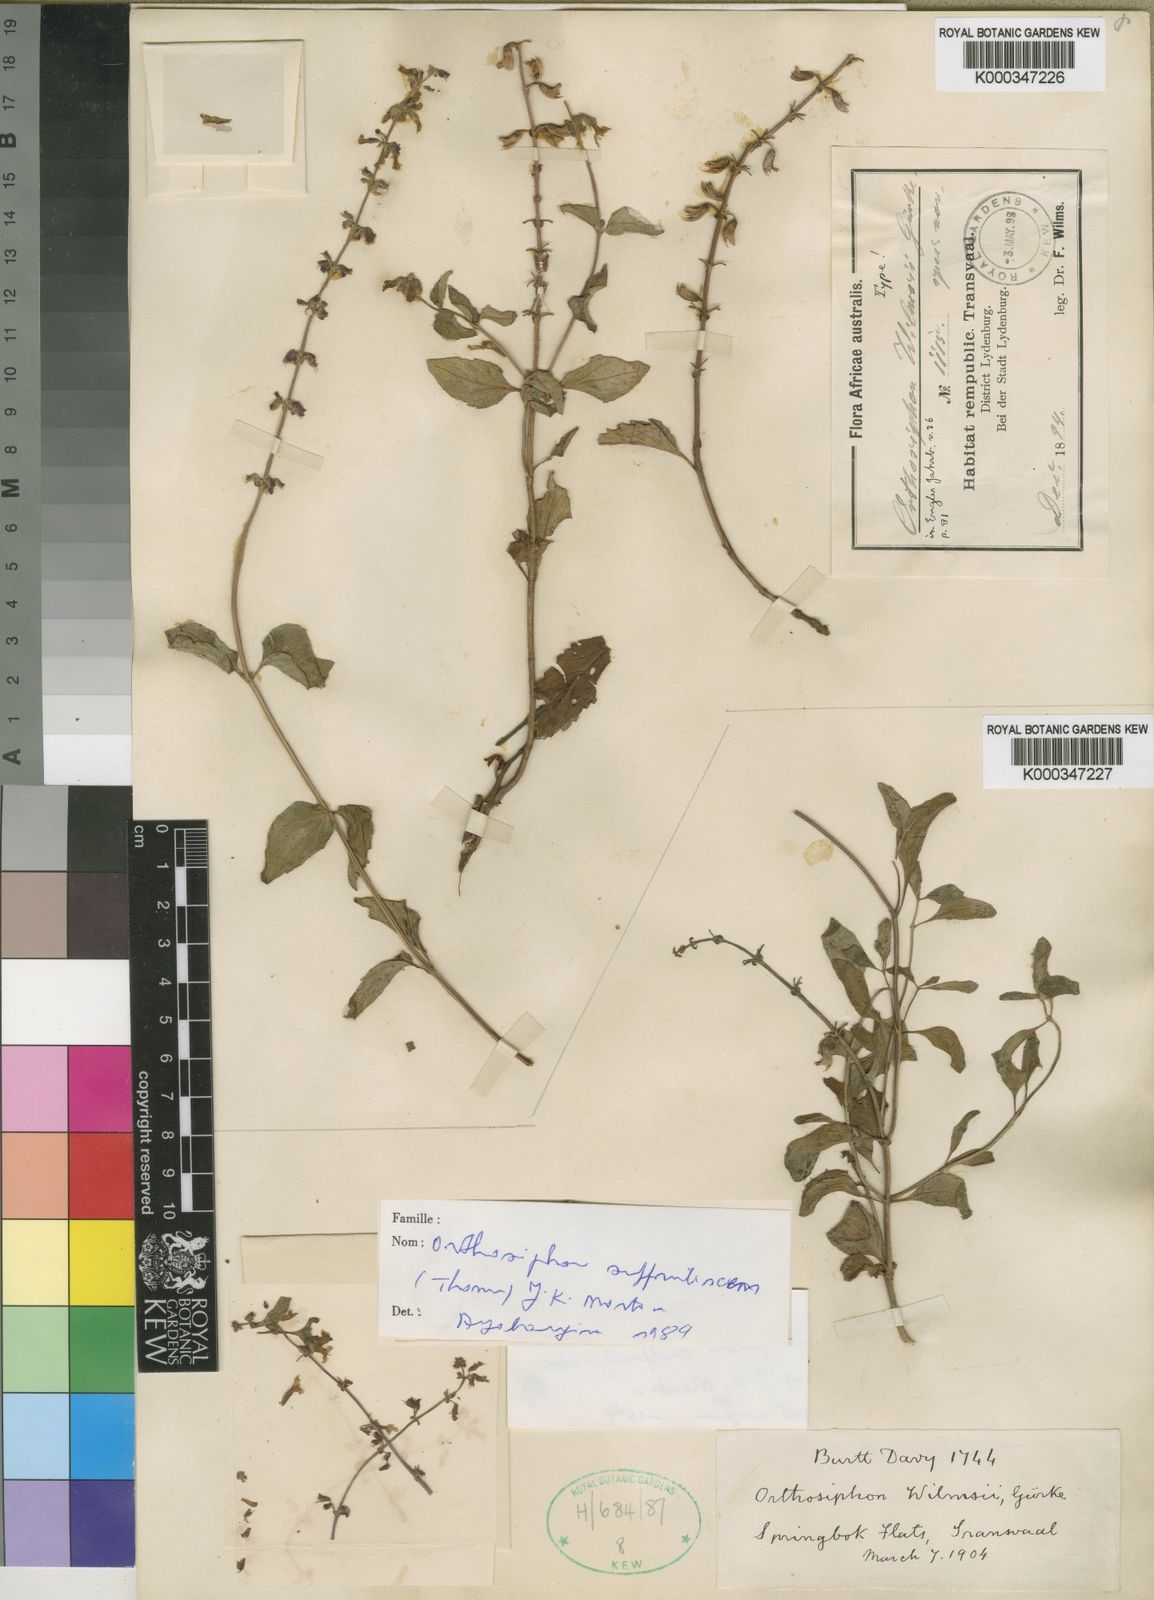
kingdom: Plantae
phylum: Tracheophyta
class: Magnoliopsida
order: Lamiales
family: Lamiaceae
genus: Orthosiphon
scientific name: Orthosiphon thymiflorus
